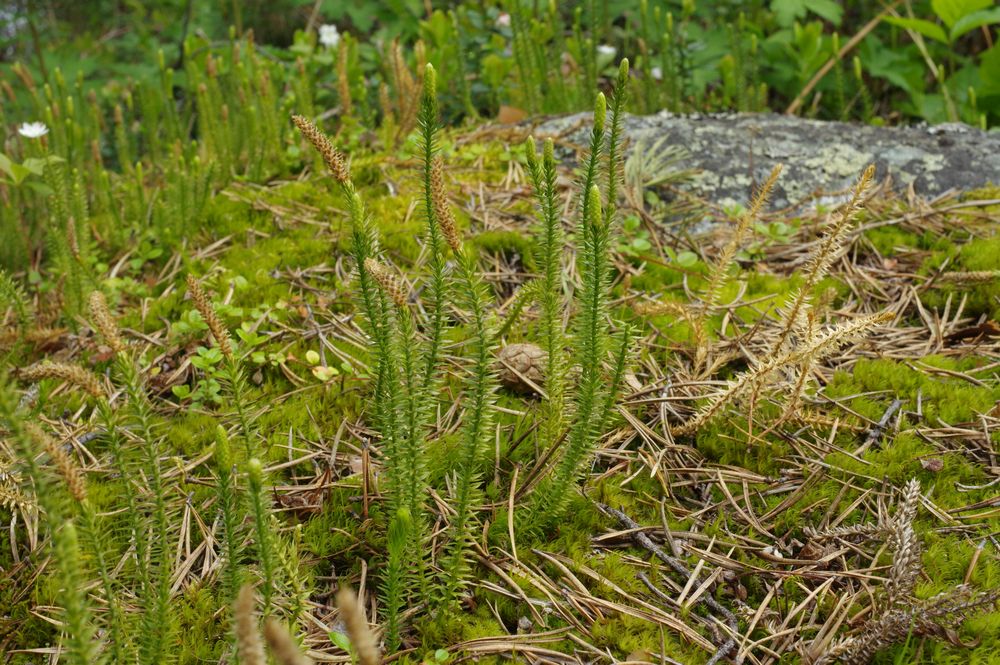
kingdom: Plantae
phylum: Tracheophyta
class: Lycopodiopsida
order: Lycopodiales
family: Lycopodiaceae
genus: Spinulum
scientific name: Spinulum annotinum
